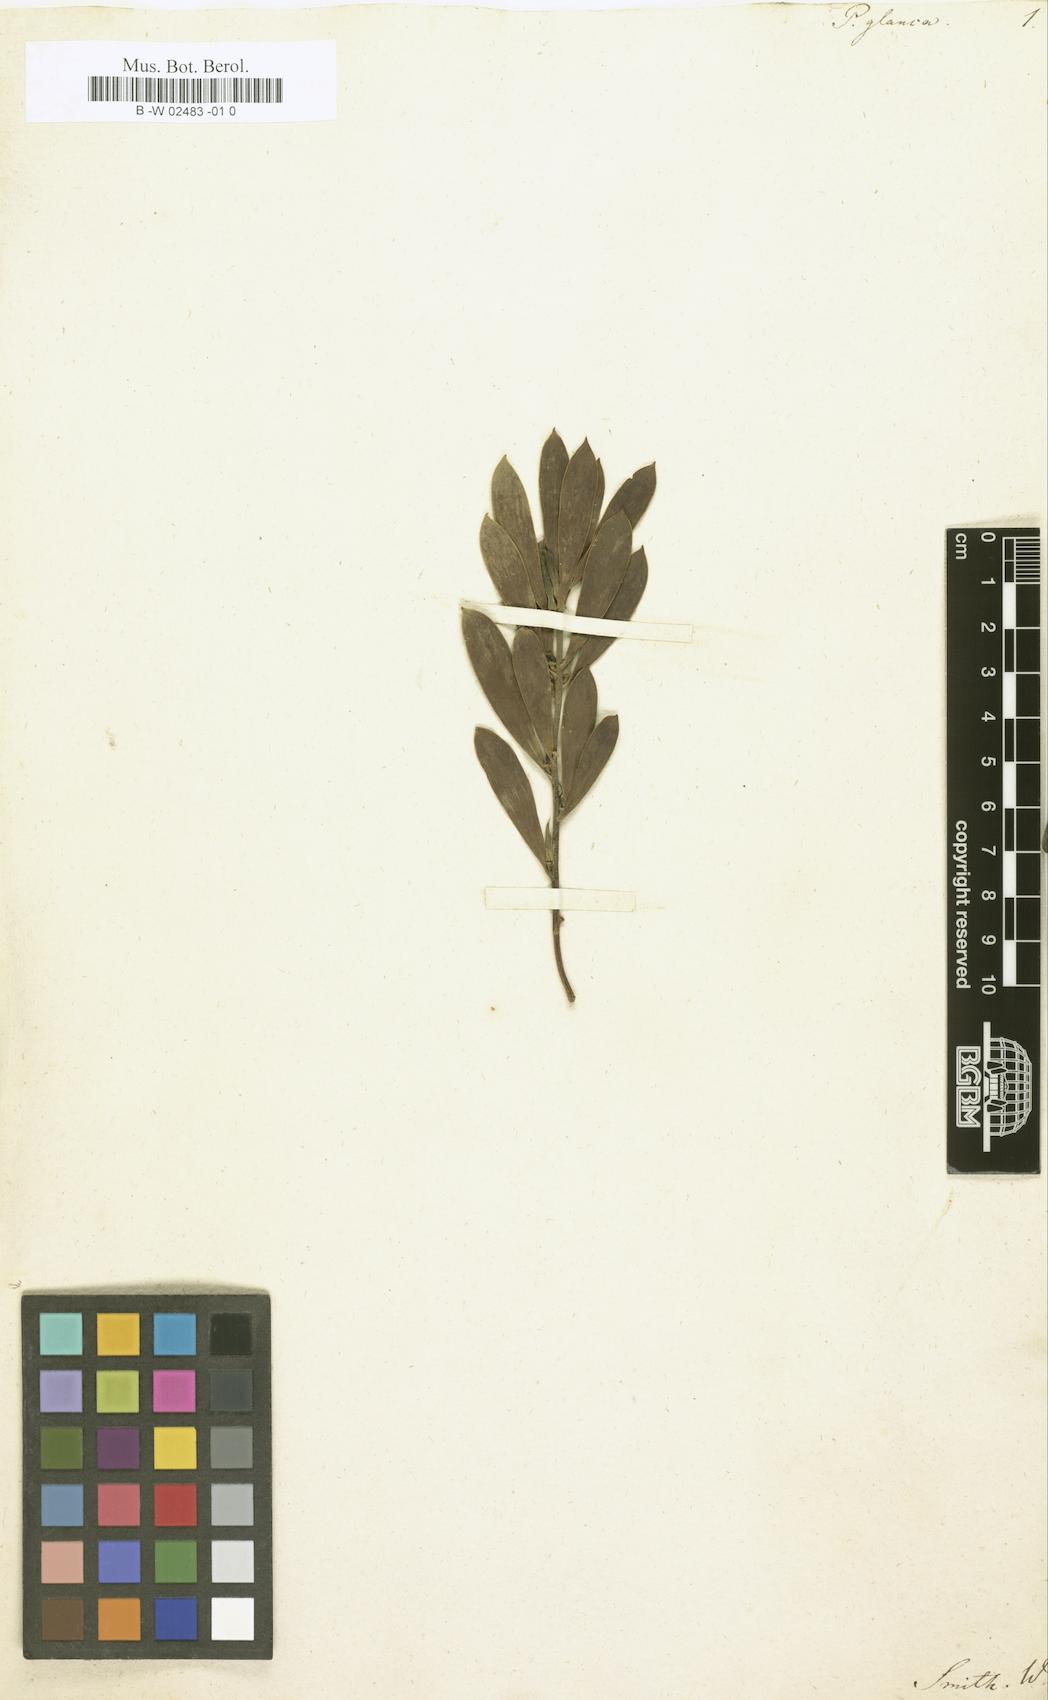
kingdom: Plantae
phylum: Tracheophyta
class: Magnoliopsida
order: Proteales
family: Proteaceae
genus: Persoonia
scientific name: Persoonia longifolia
